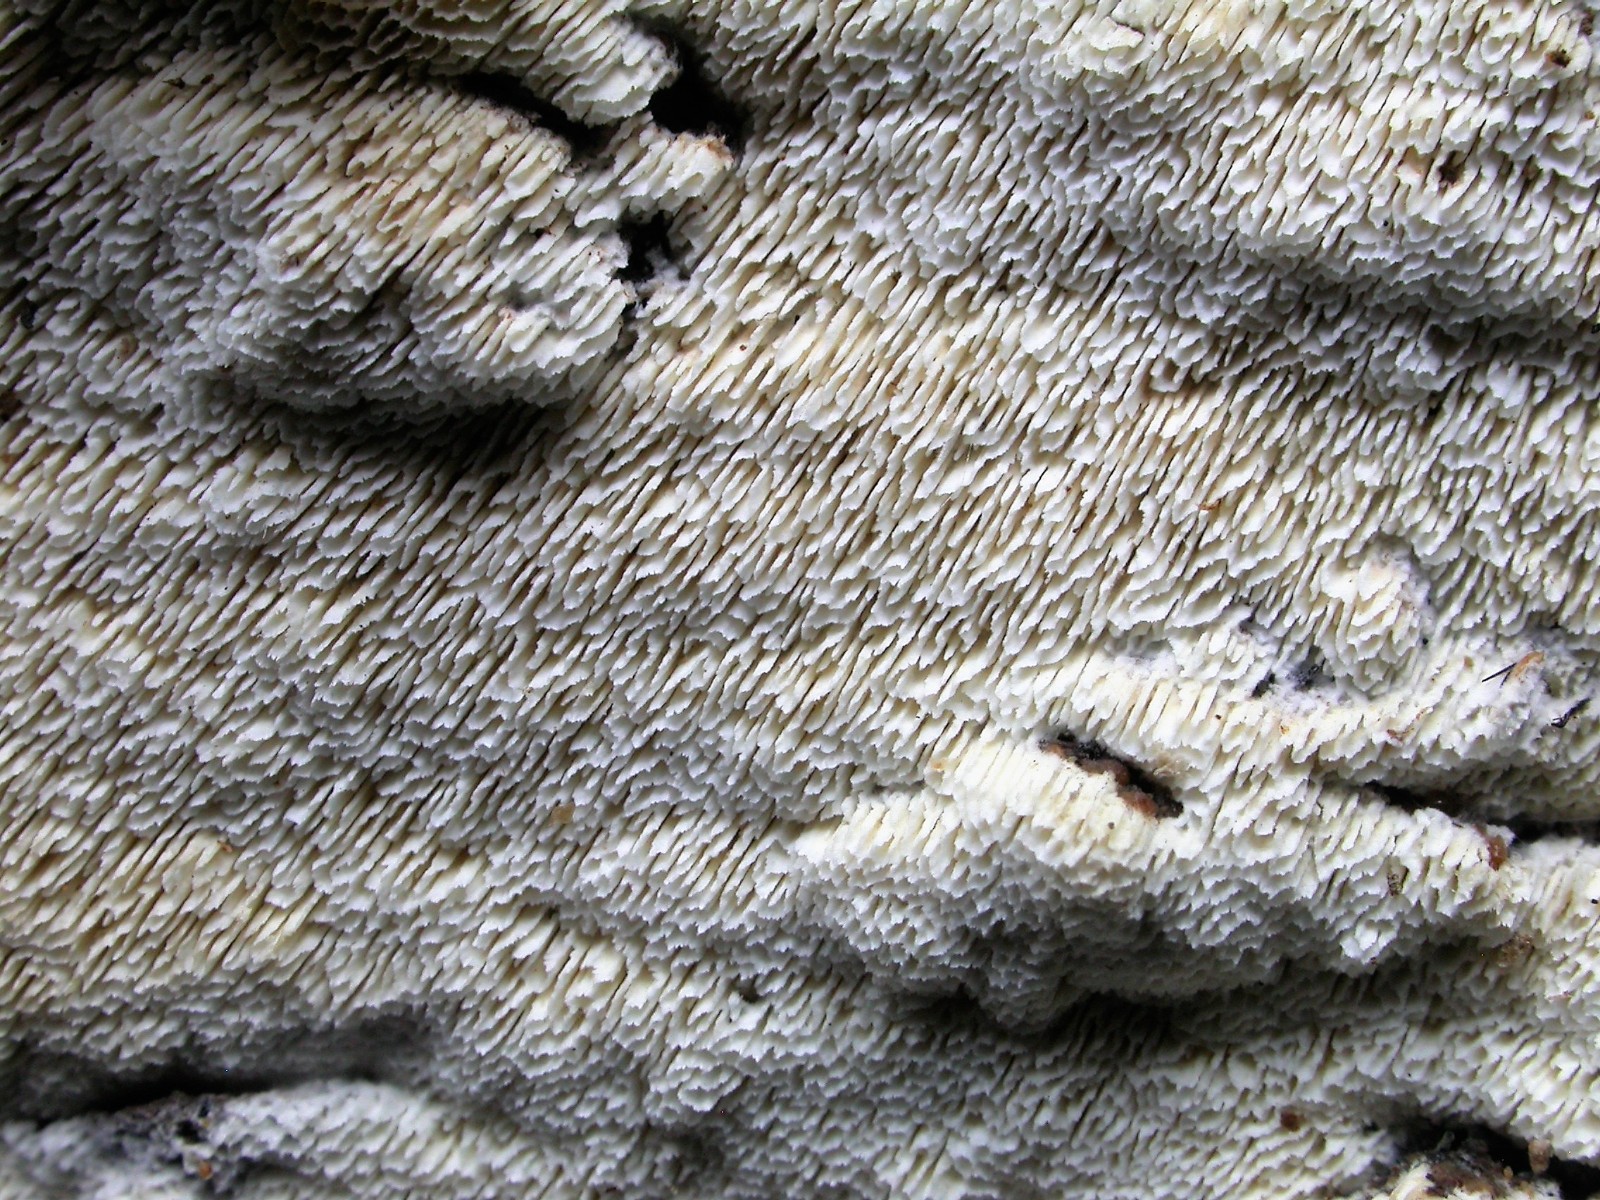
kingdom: Fungi
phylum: Basidiomycota
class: Agaricomycetes
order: Hymenochaetales
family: Schizoporaceae
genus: Schizopora
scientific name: Schizopora paradoxa
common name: hvid tandsvamp
